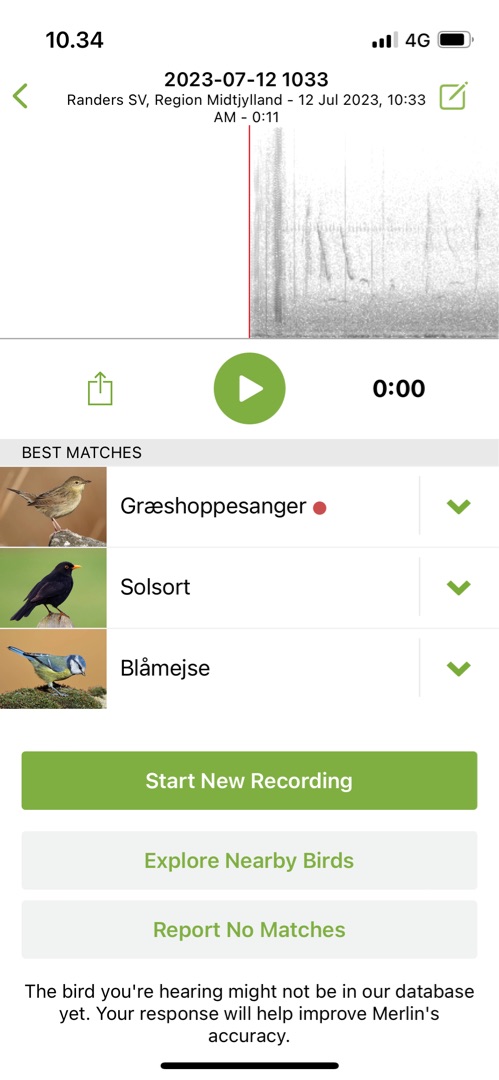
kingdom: Animalia
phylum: Chordata
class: Aves
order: Passeriformes
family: Phylloscopidae
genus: Phylloscopus
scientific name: Phylloscopus collybita
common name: Gransanger
